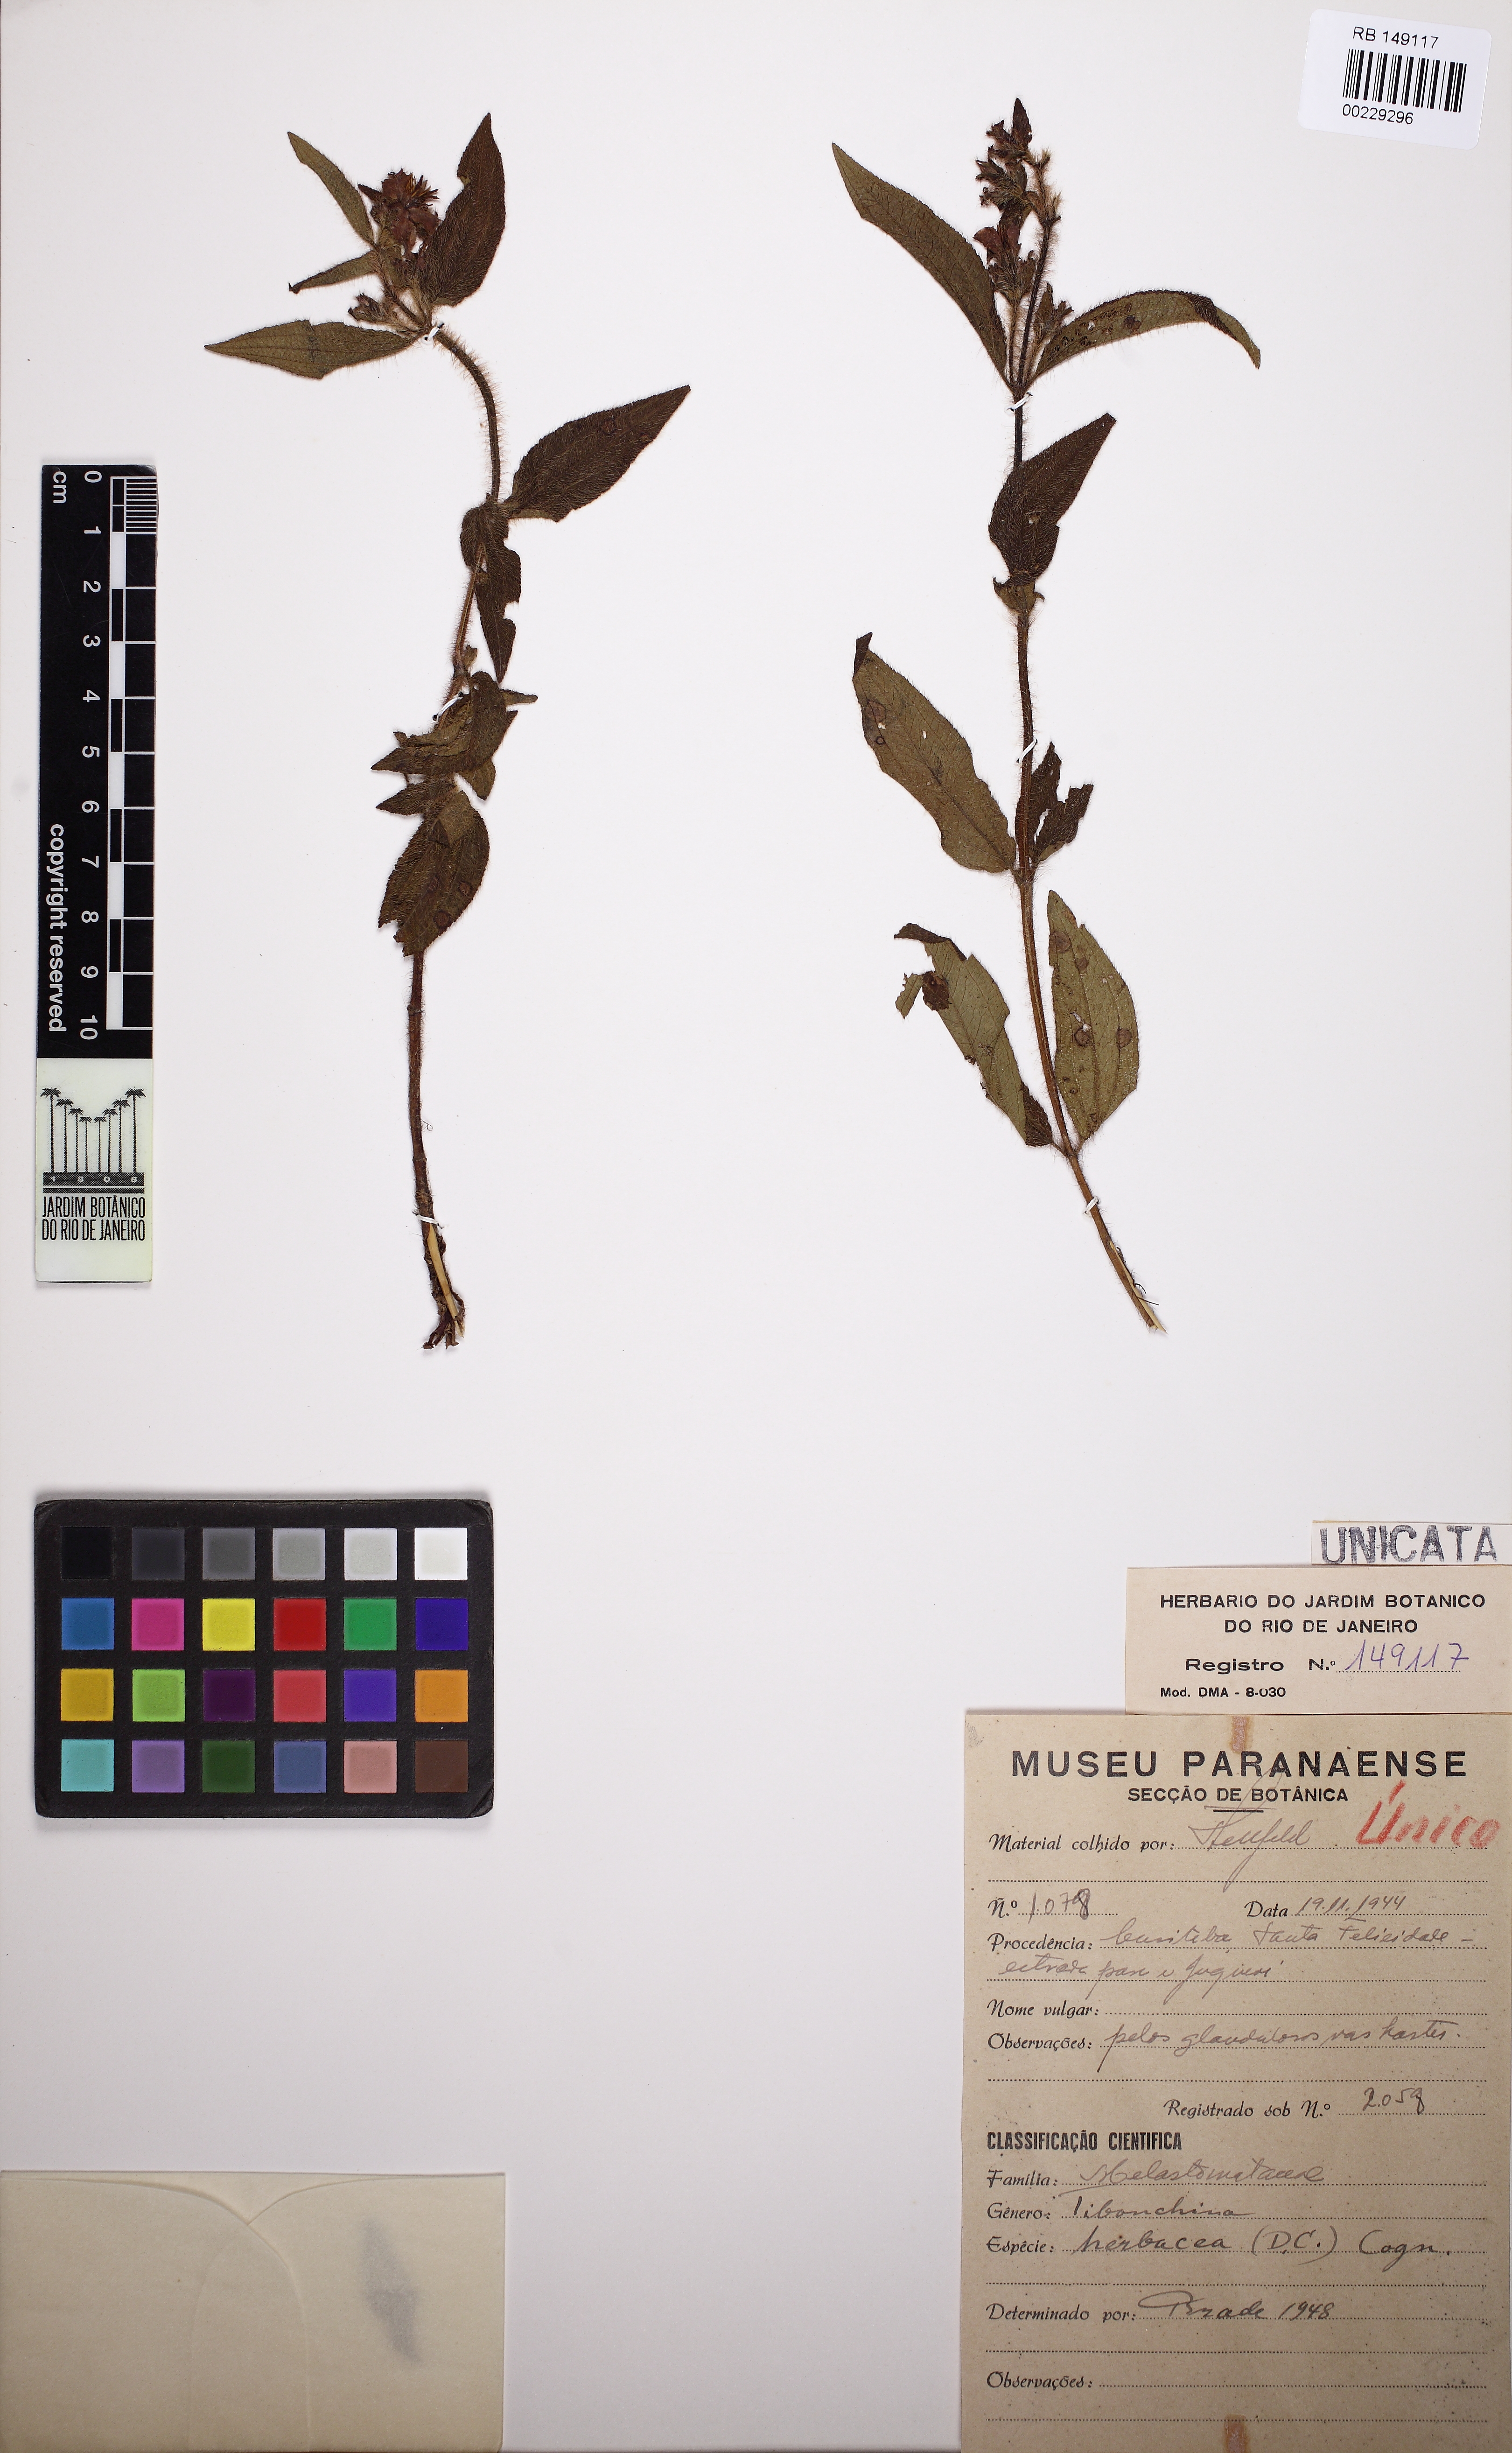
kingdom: Plantae
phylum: Tracheophyta
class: Magnoliopsida
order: Myrtales
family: Melastomataceae
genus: Chaetogastra
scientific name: Chaetogastra herbacea
